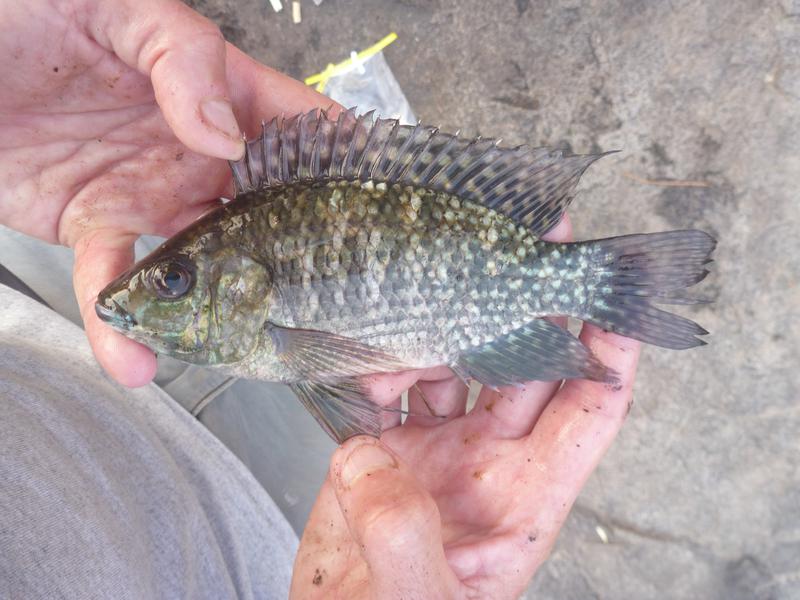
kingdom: Animalia
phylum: Chordata
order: Perciformes
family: Cichlidae
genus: Oreochromis
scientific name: Oreochromis leucostictus
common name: Blue spotted tilapia
